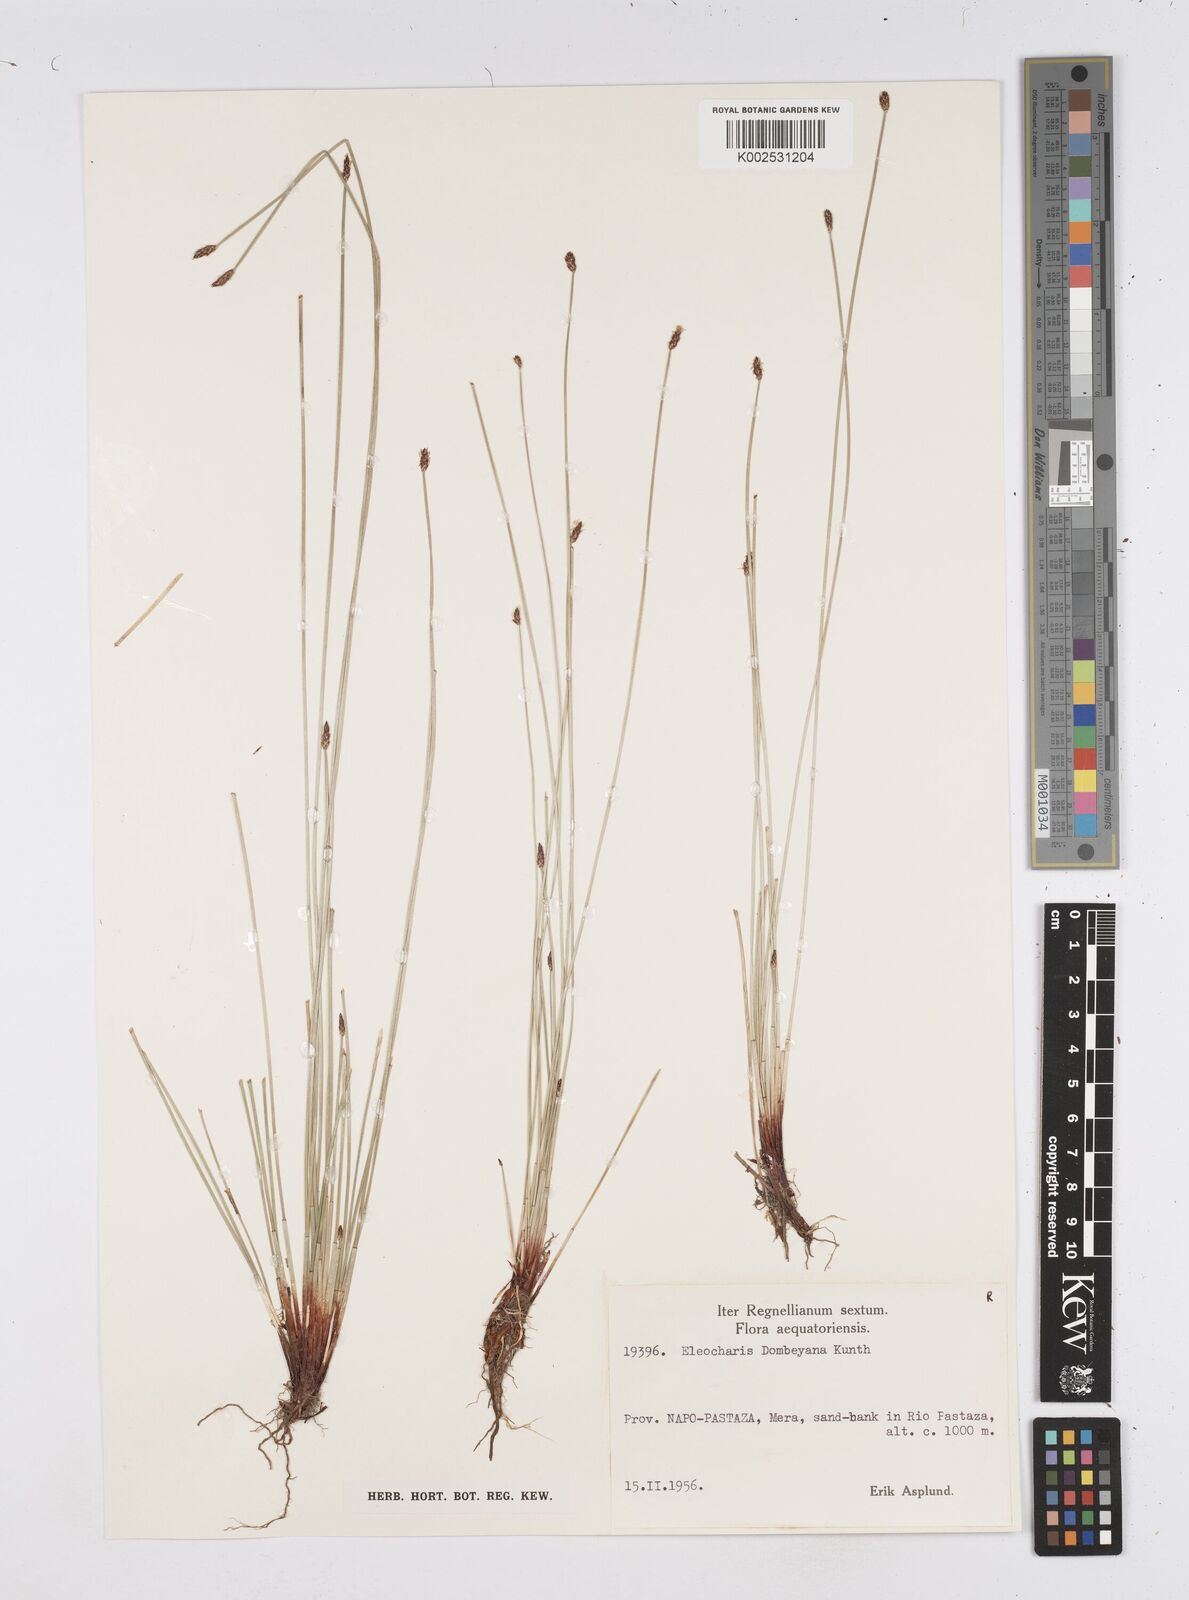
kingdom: Plantae
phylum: Tracheophyta
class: Liliopsida
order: Poales
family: Cyperaceae
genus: Eleocharis
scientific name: Eleocharis dombeyana
